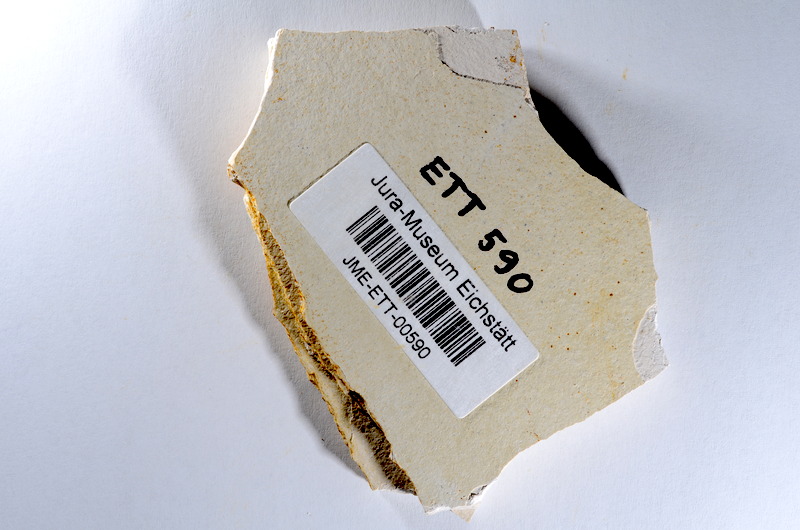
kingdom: Animalia
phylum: Chordata
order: Salmoniformes
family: Orthogonikleithridae
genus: Orthogonikleithrus
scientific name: Orthogonikleithrus hoelli
